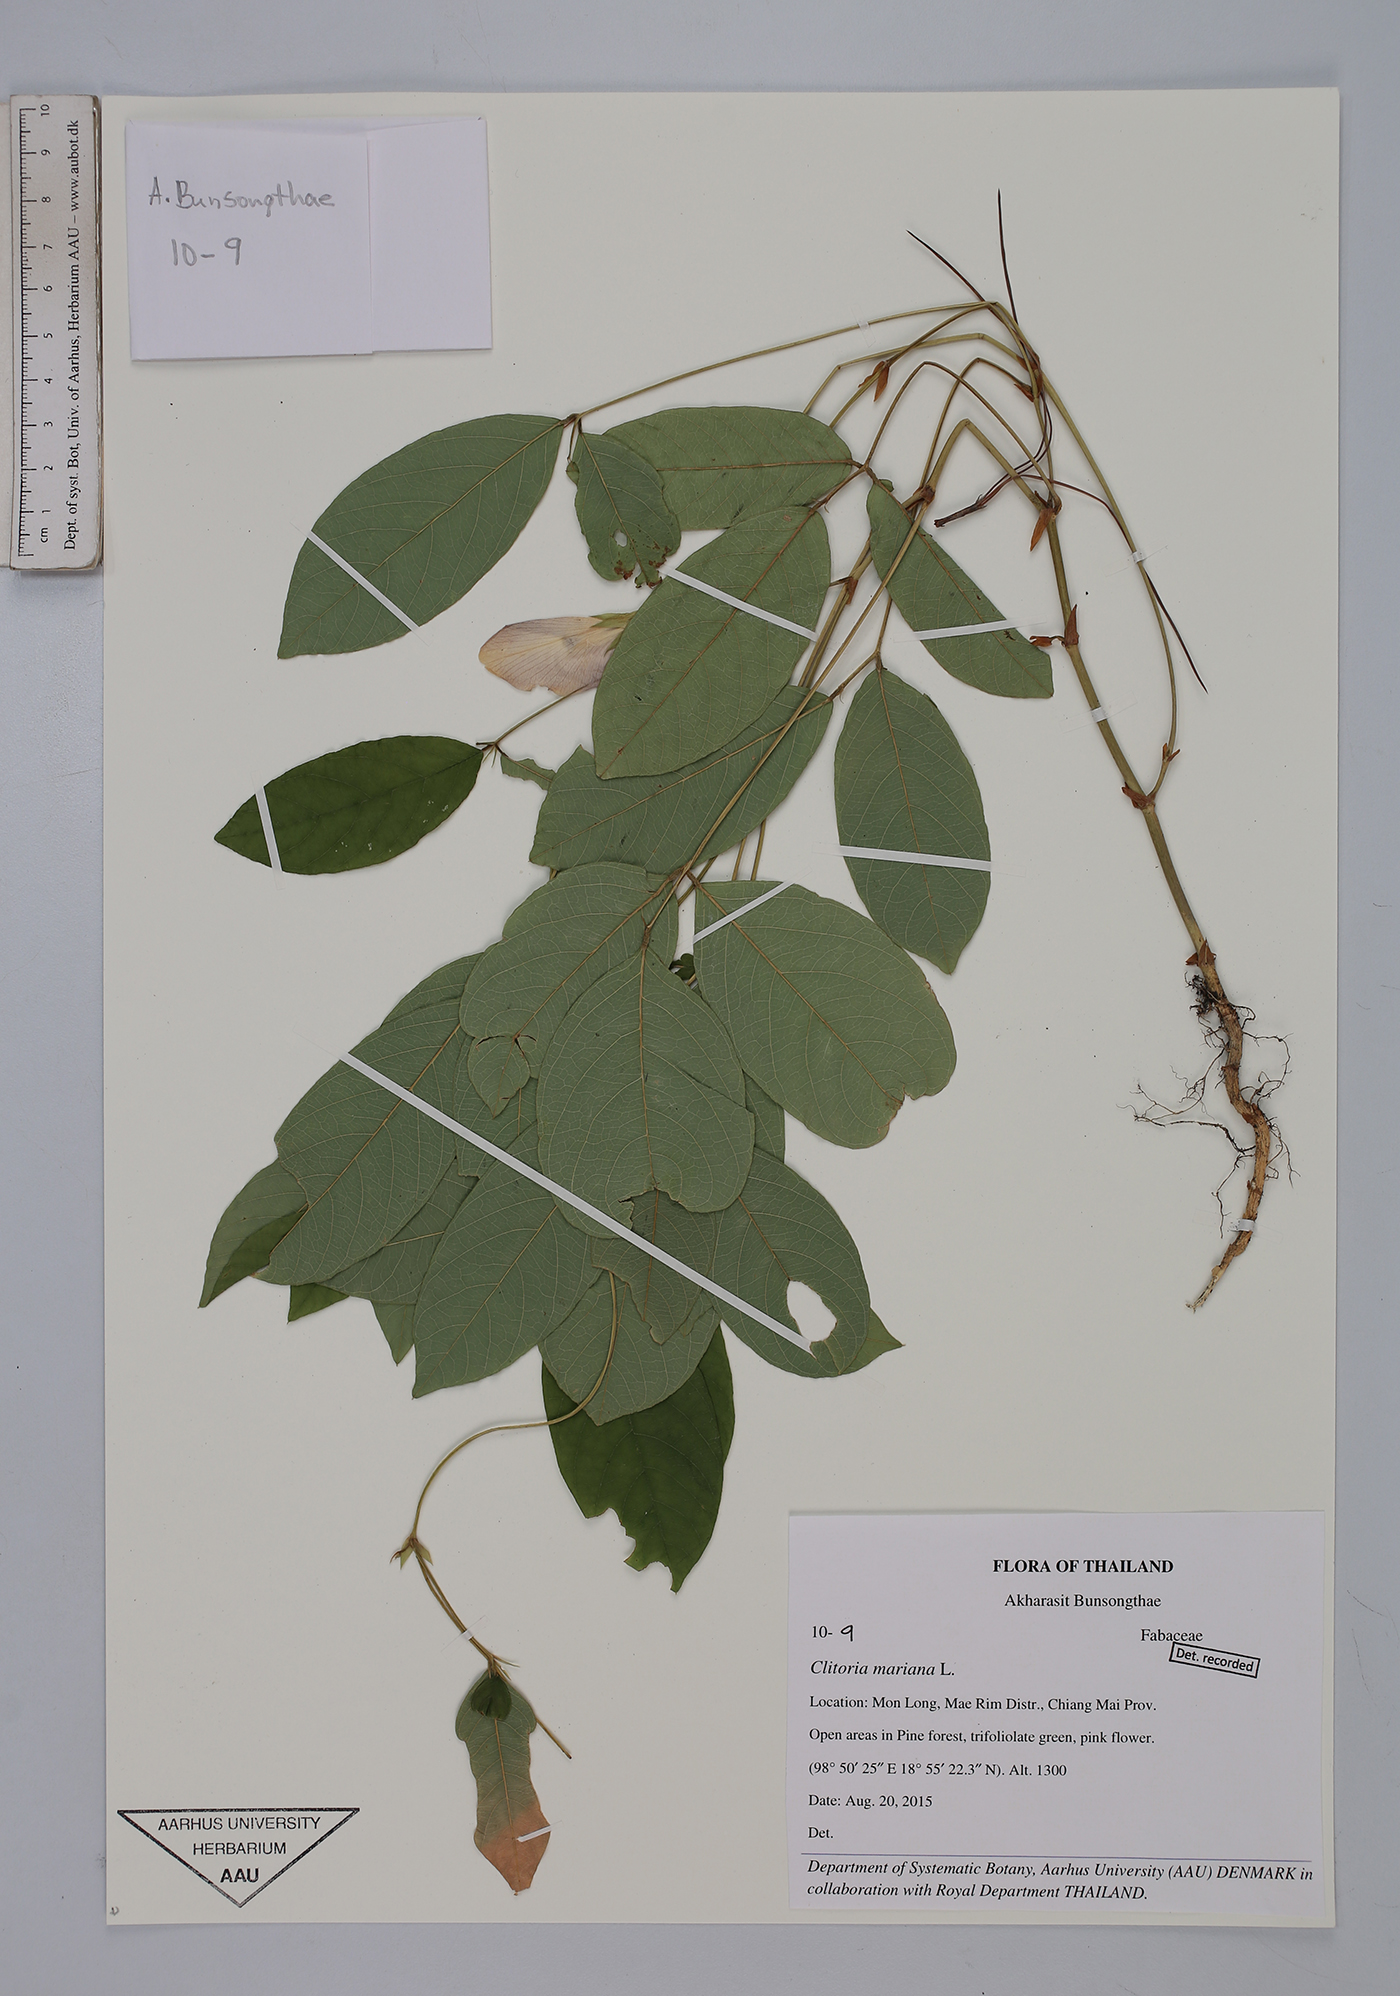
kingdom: Plantae
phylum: Tracheophyta
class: Magnoliopsida
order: Fabales
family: Fabaceae
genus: Clitoria
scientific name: Clitoria mariana
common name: Butterfly-pea
